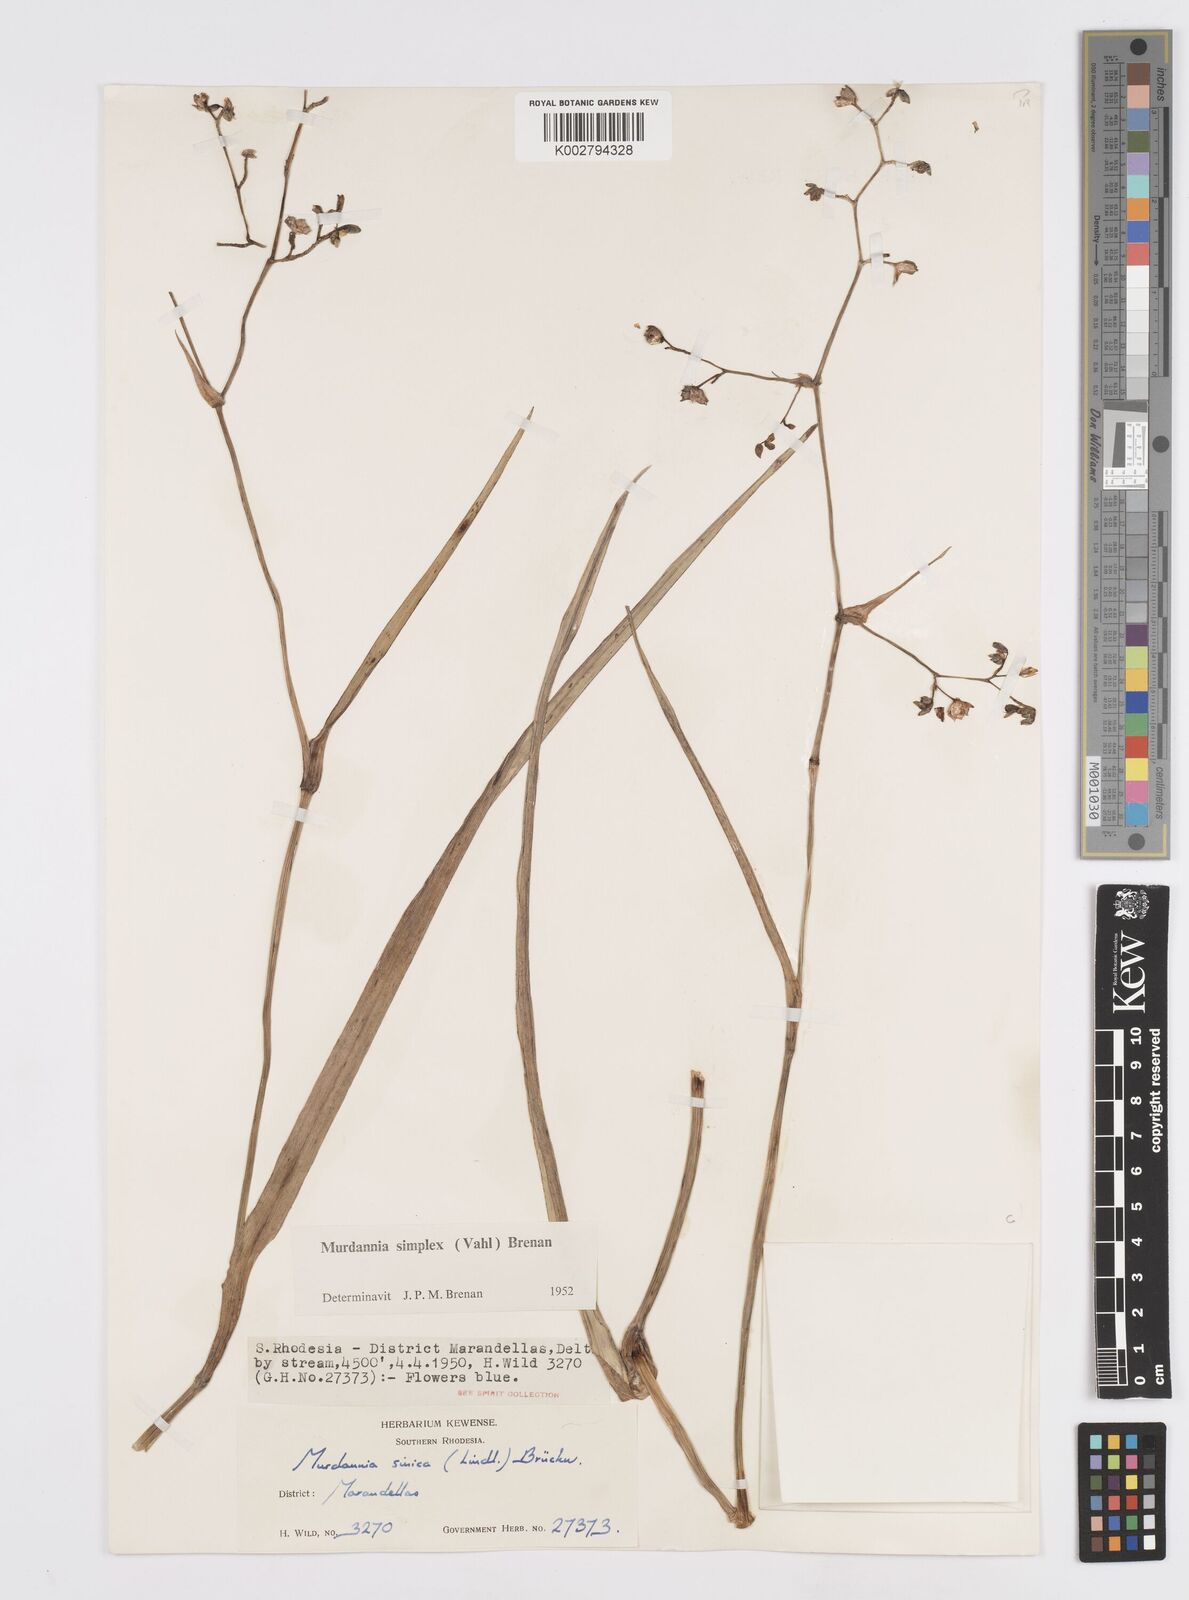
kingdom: Plantae
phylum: Tracheophyta
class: Liliopsida
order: Commelinales
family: Commelinaceae
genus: Murdannia
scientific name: Murdannia simplex
